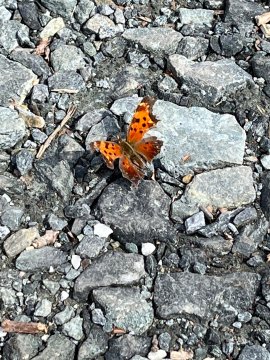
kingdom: Animalia
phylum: Arthropoda
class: Insecta
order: Lepidoptera
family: Nymphalidae
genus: Polygonia
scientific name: Polygonia comma
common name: Eastern Comma
